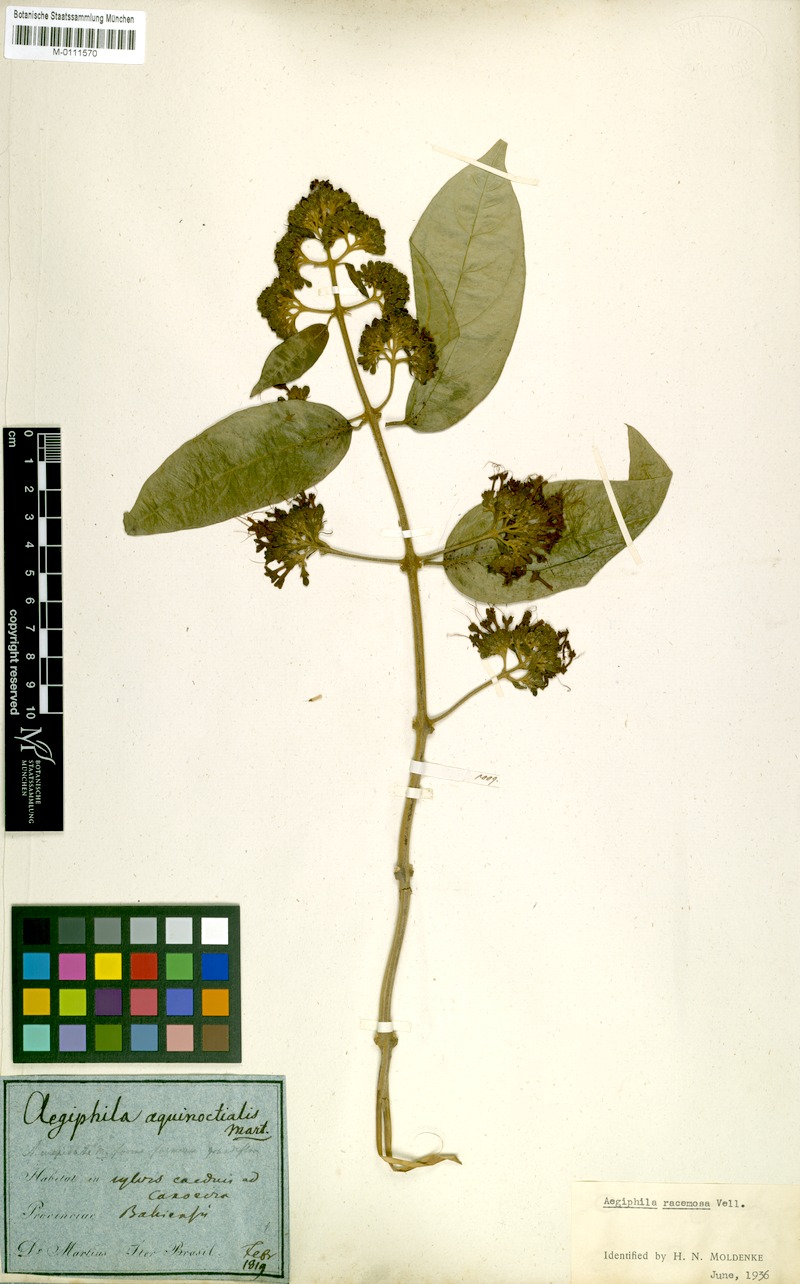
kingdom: Plantae
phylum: Tracheophyta
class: Magnoliopsida
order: Lamiales
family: Lamiaceae
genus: Aegiphila
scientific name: Aegiphila vitelliniflora
